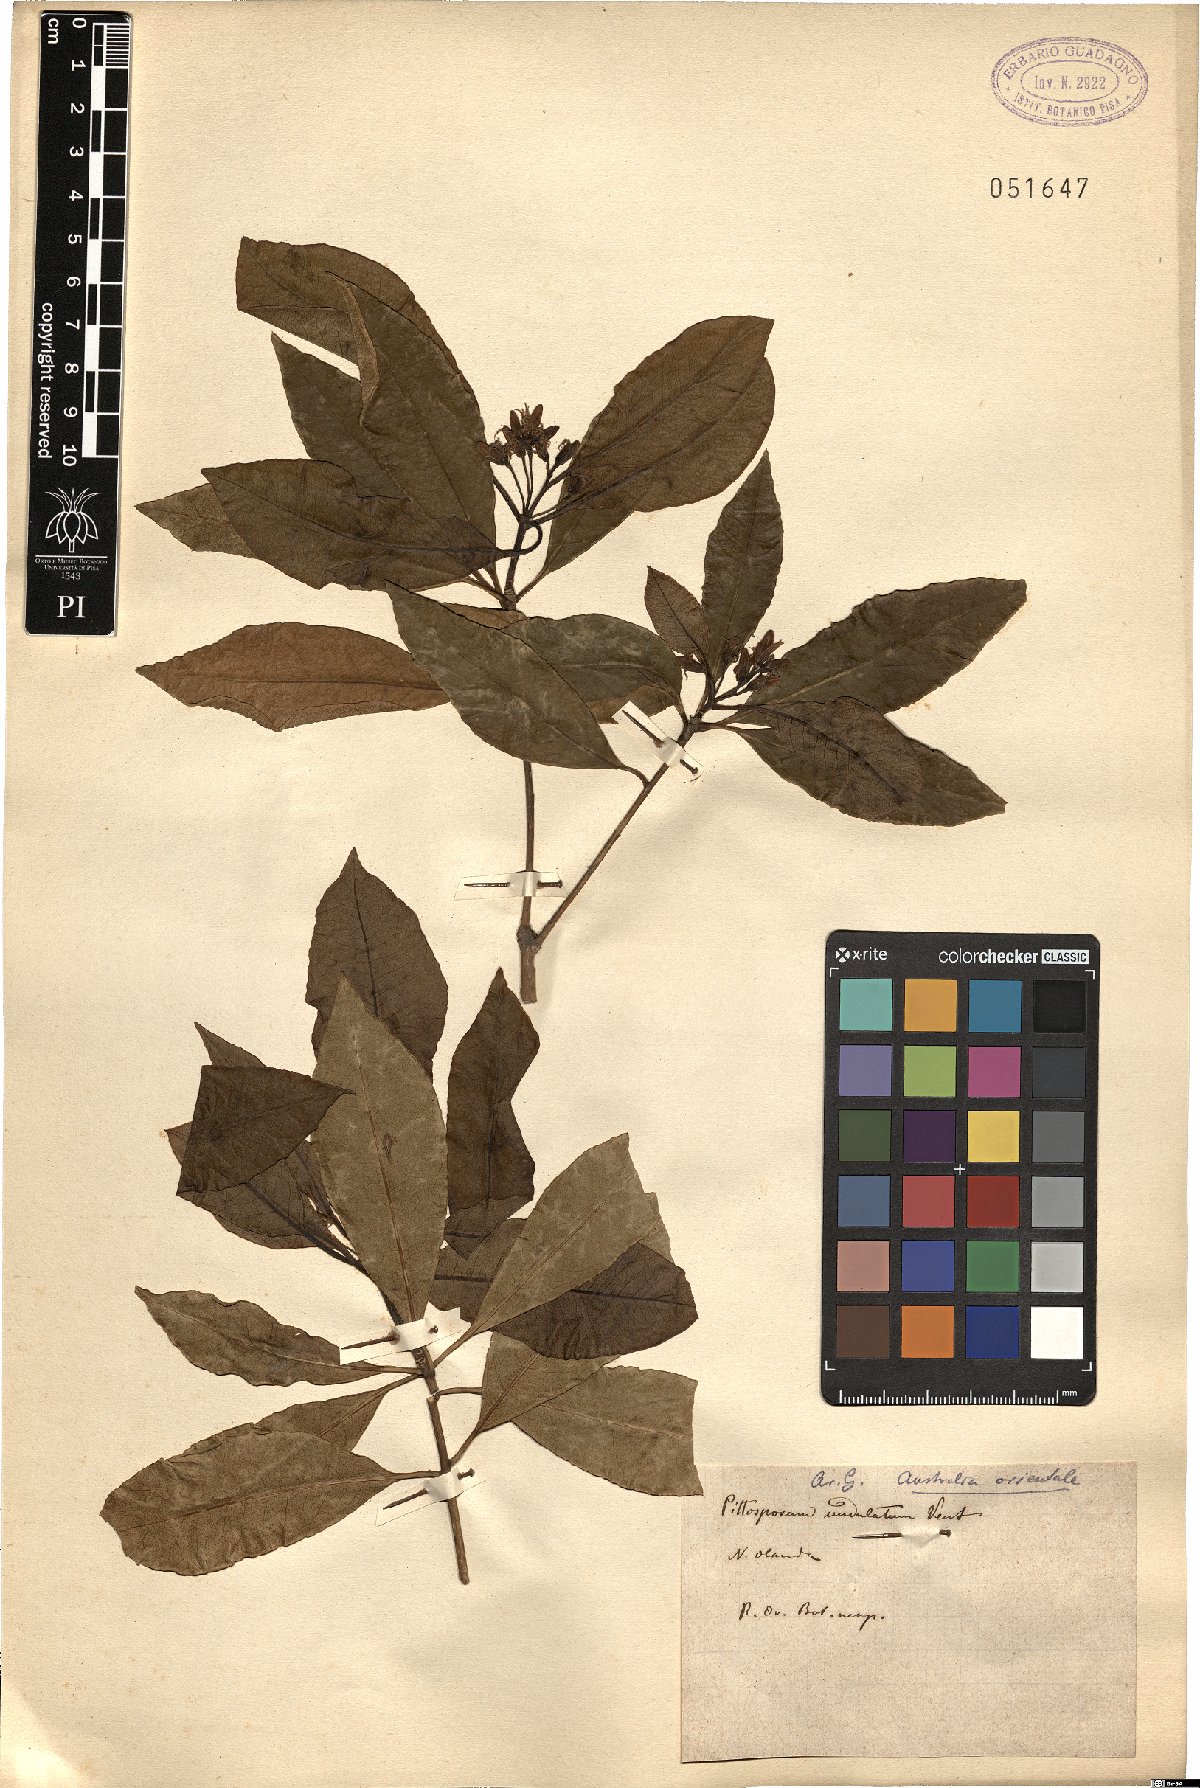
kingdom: Plantae
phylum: Tracheophyta
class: Magnoliopsida
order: Apiales
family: Pittosporaceae
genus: Pittosporum
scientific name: Pittosporum undulatum
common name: Australian cheesewood
